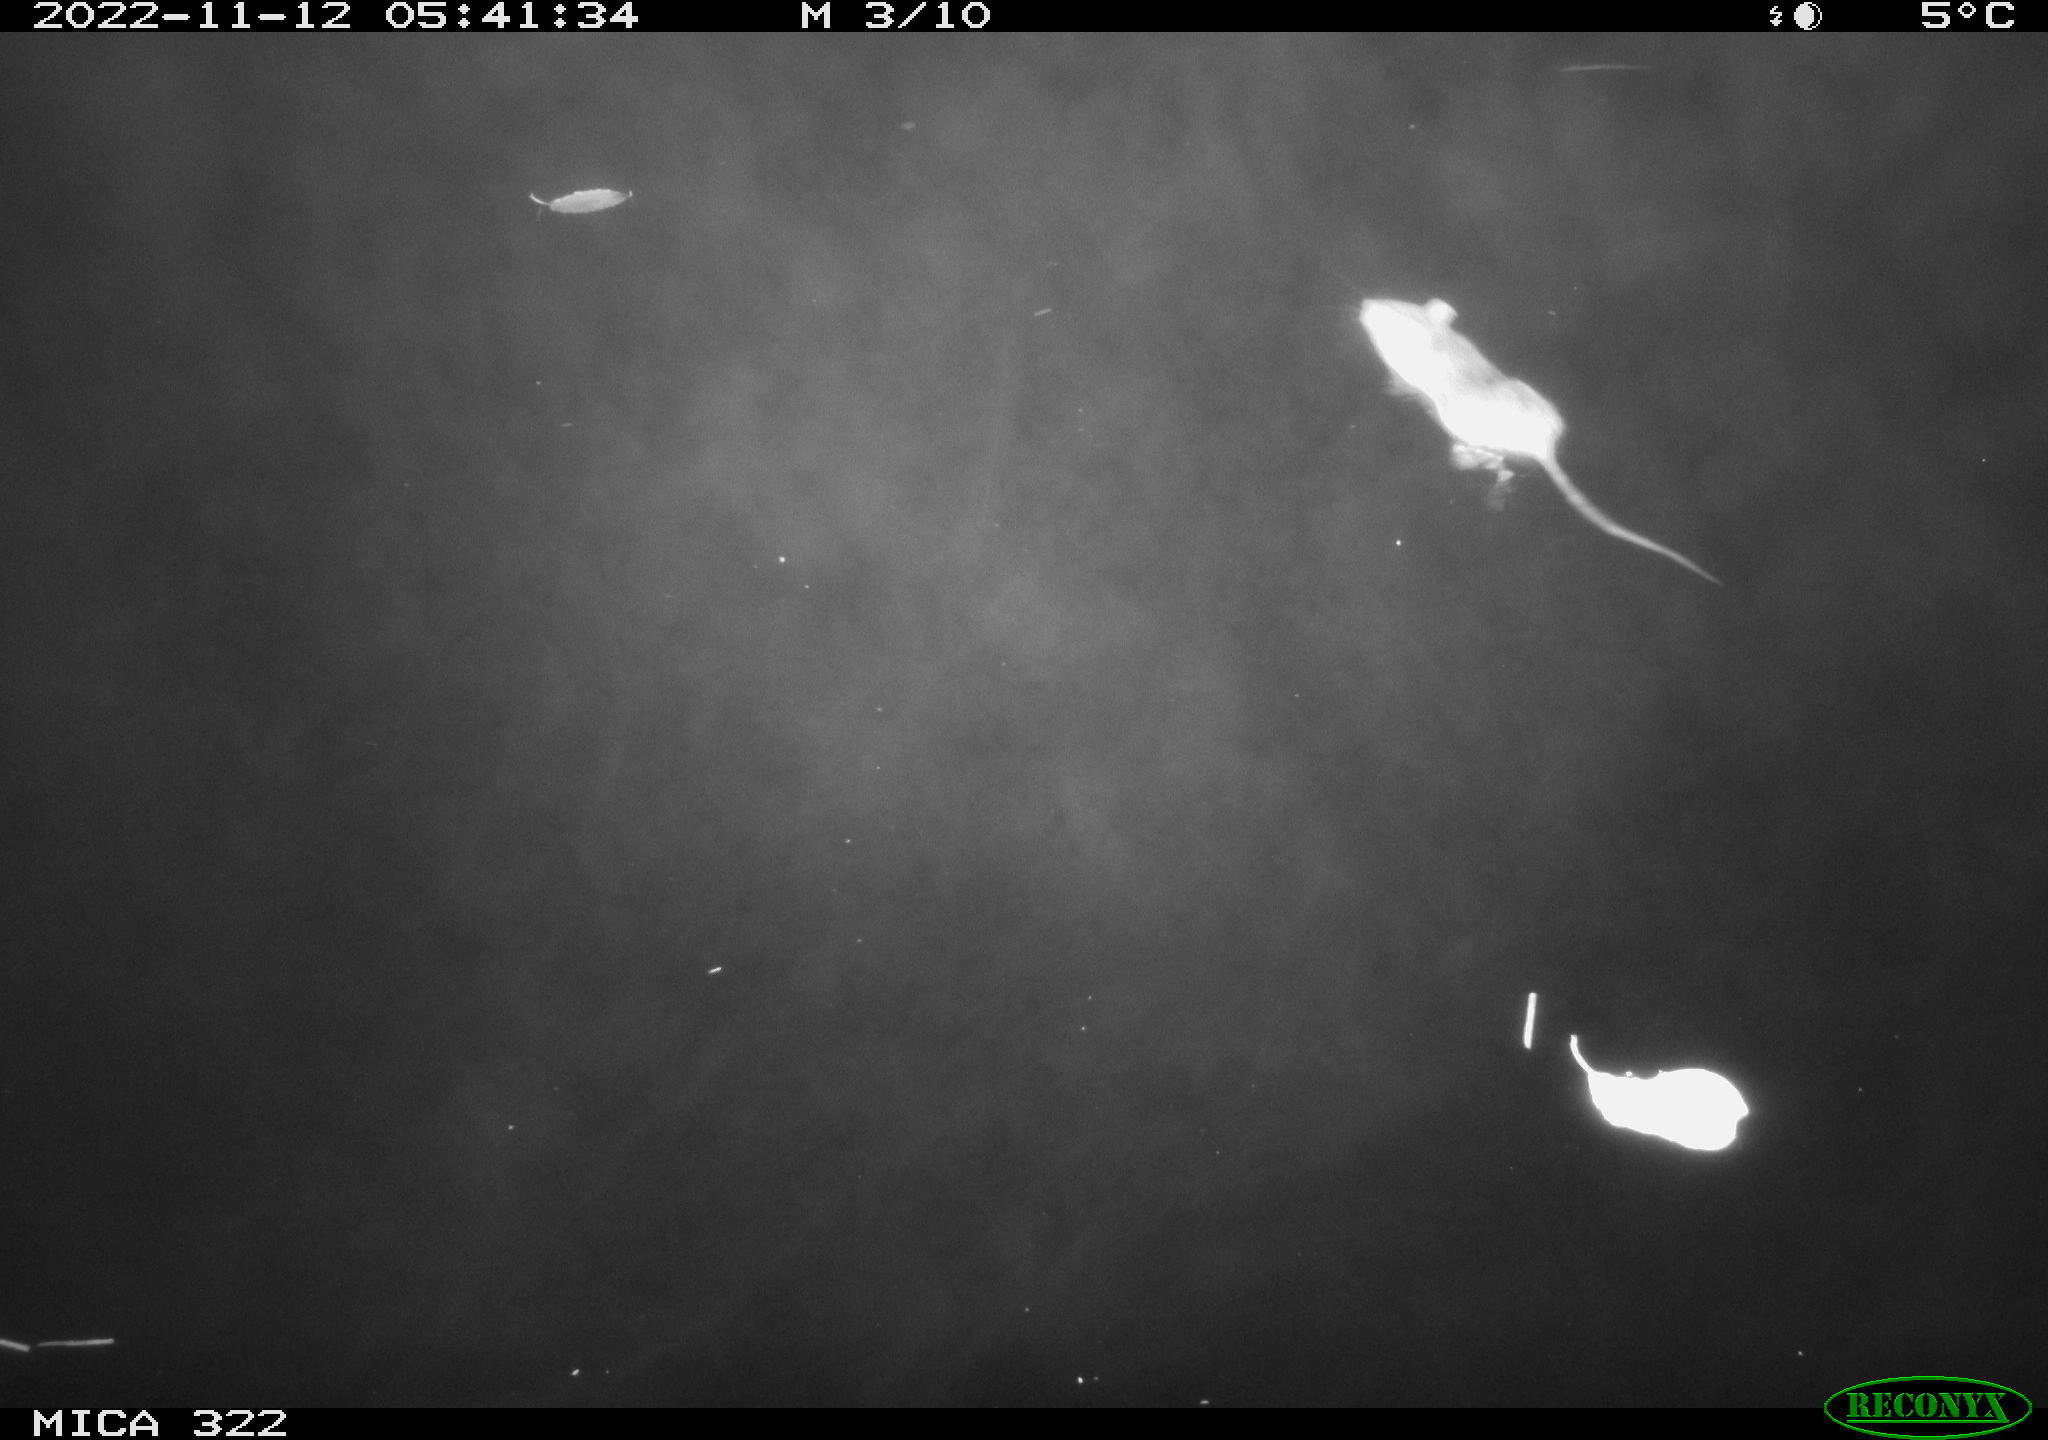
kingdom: Animalia
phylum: Chordata
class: Mammalia
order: Rodentia
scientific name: Rodentia
